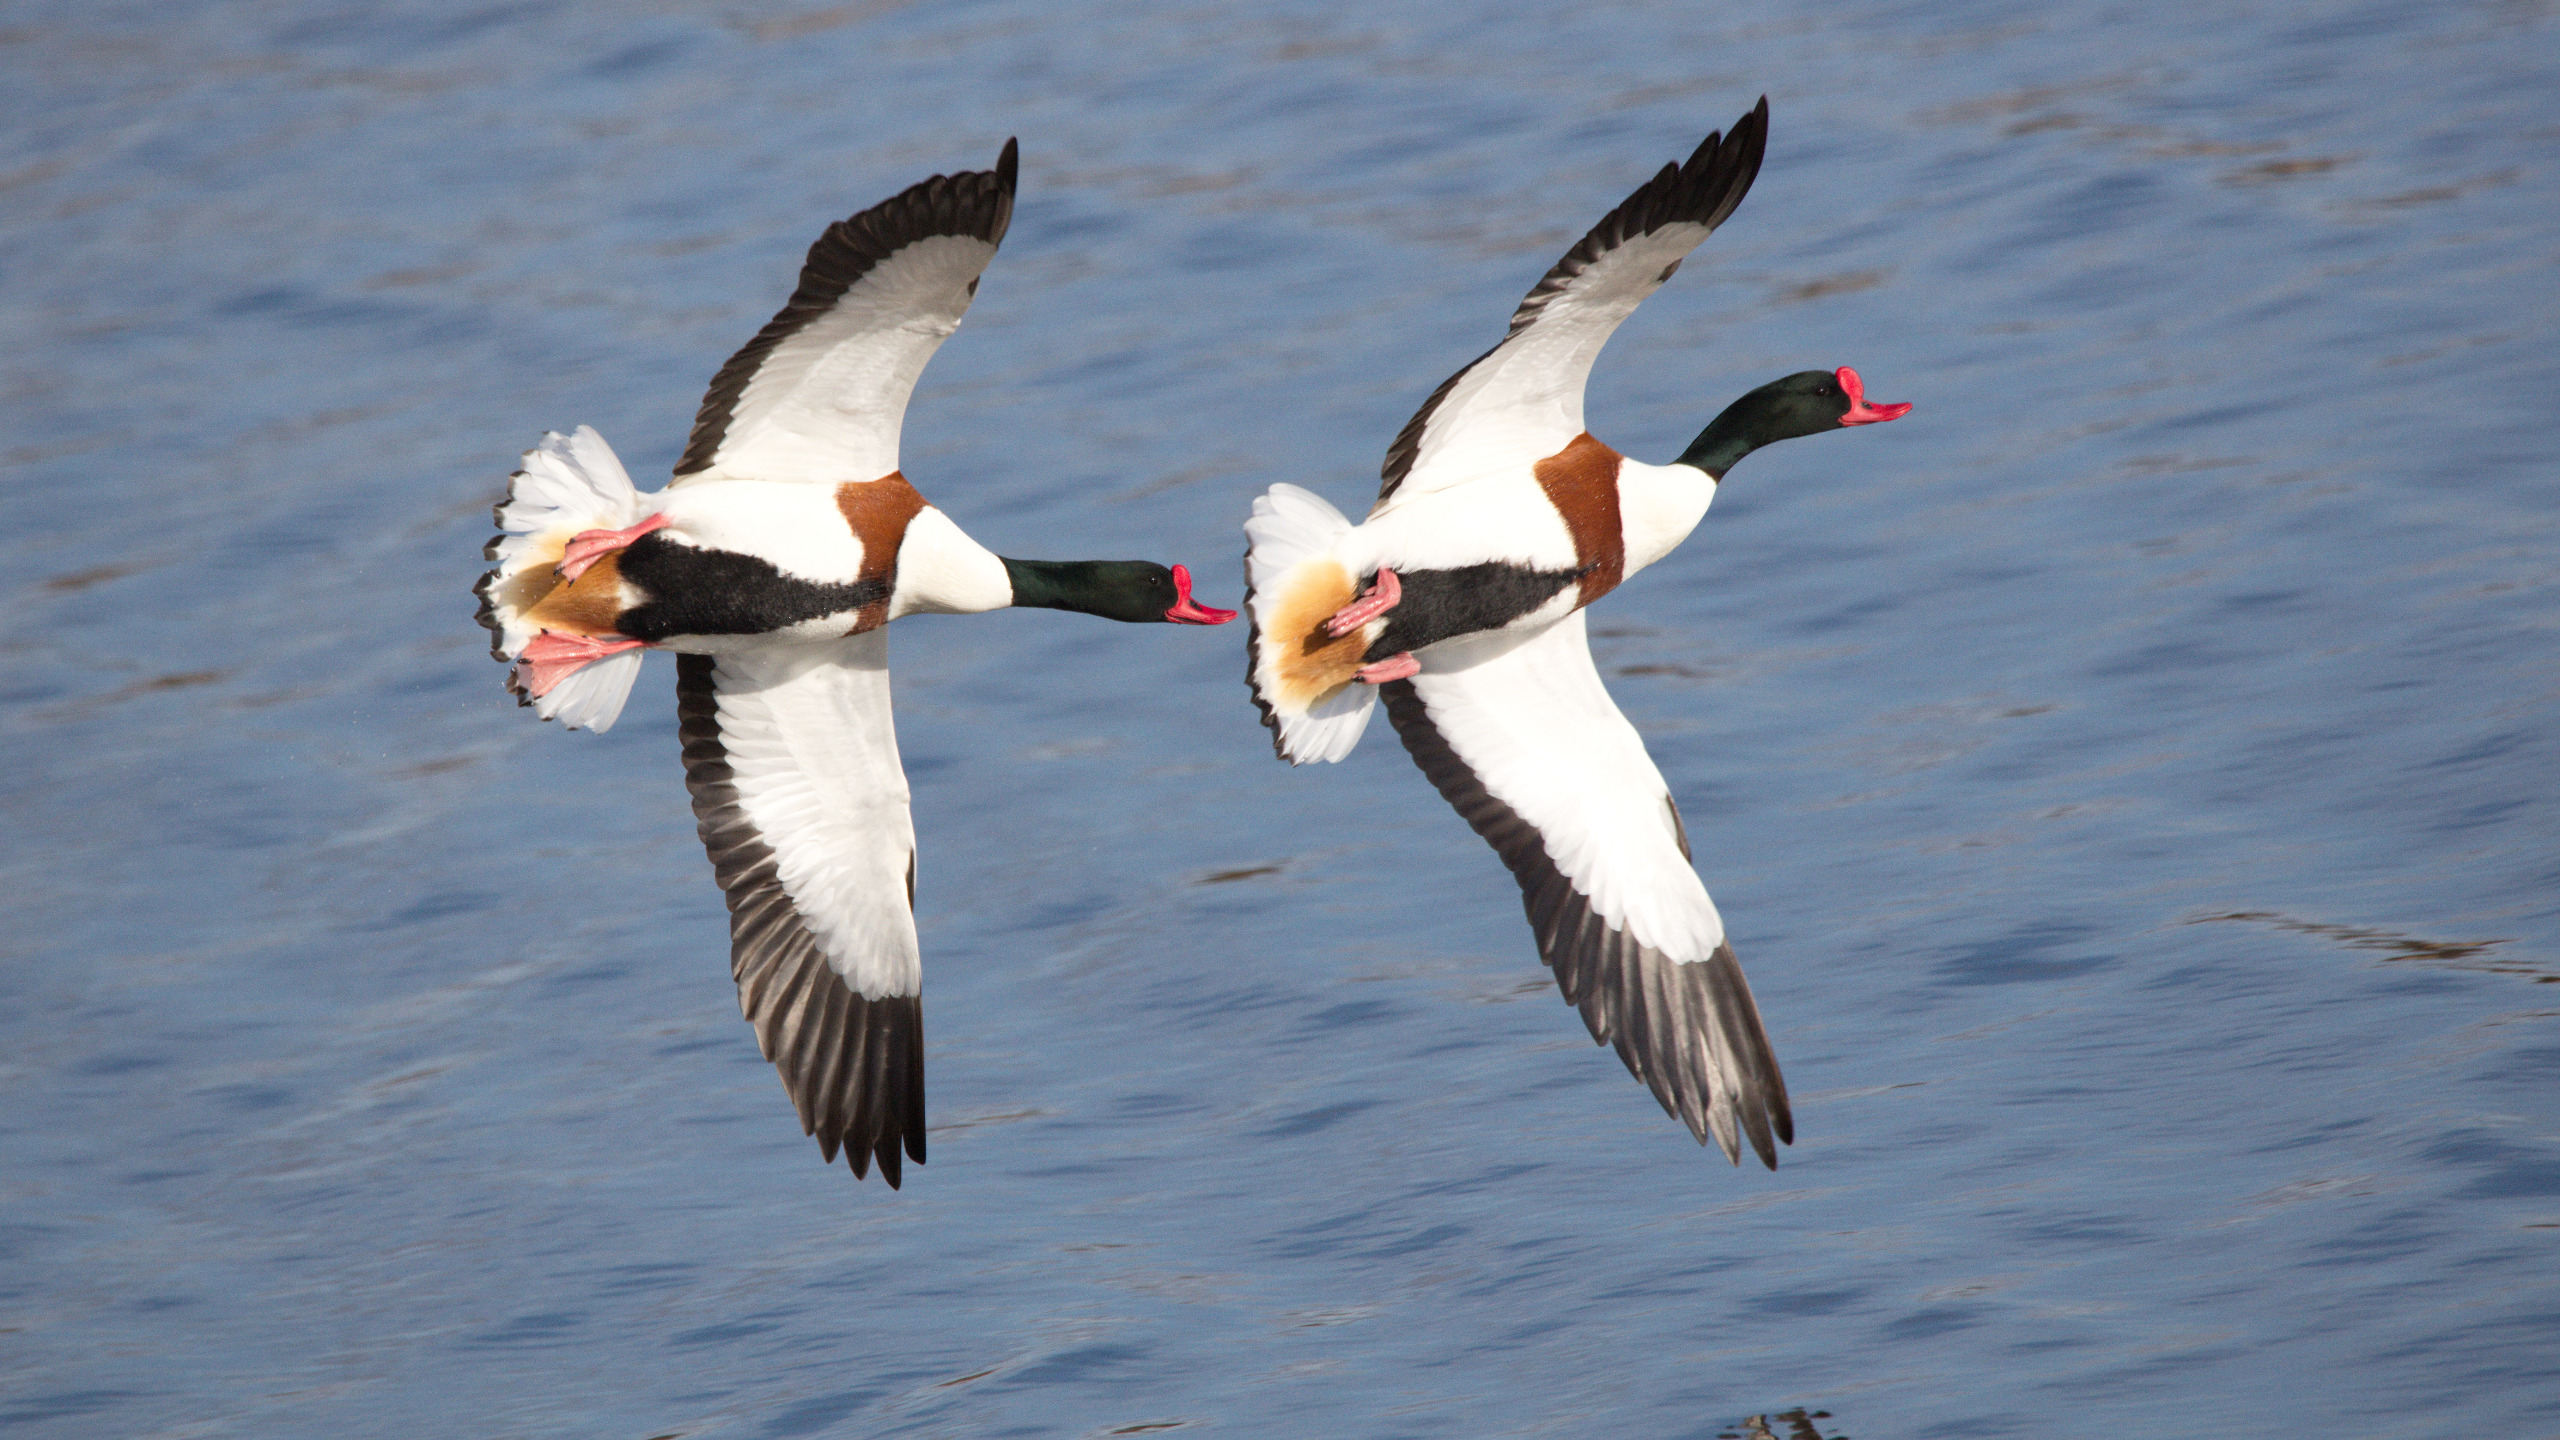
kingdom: Animalia
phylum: Chordata
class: Aves
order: Anseriformes
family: Anatidae
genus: Tadorna
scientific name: Tadorna tadorna
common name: Gravand
